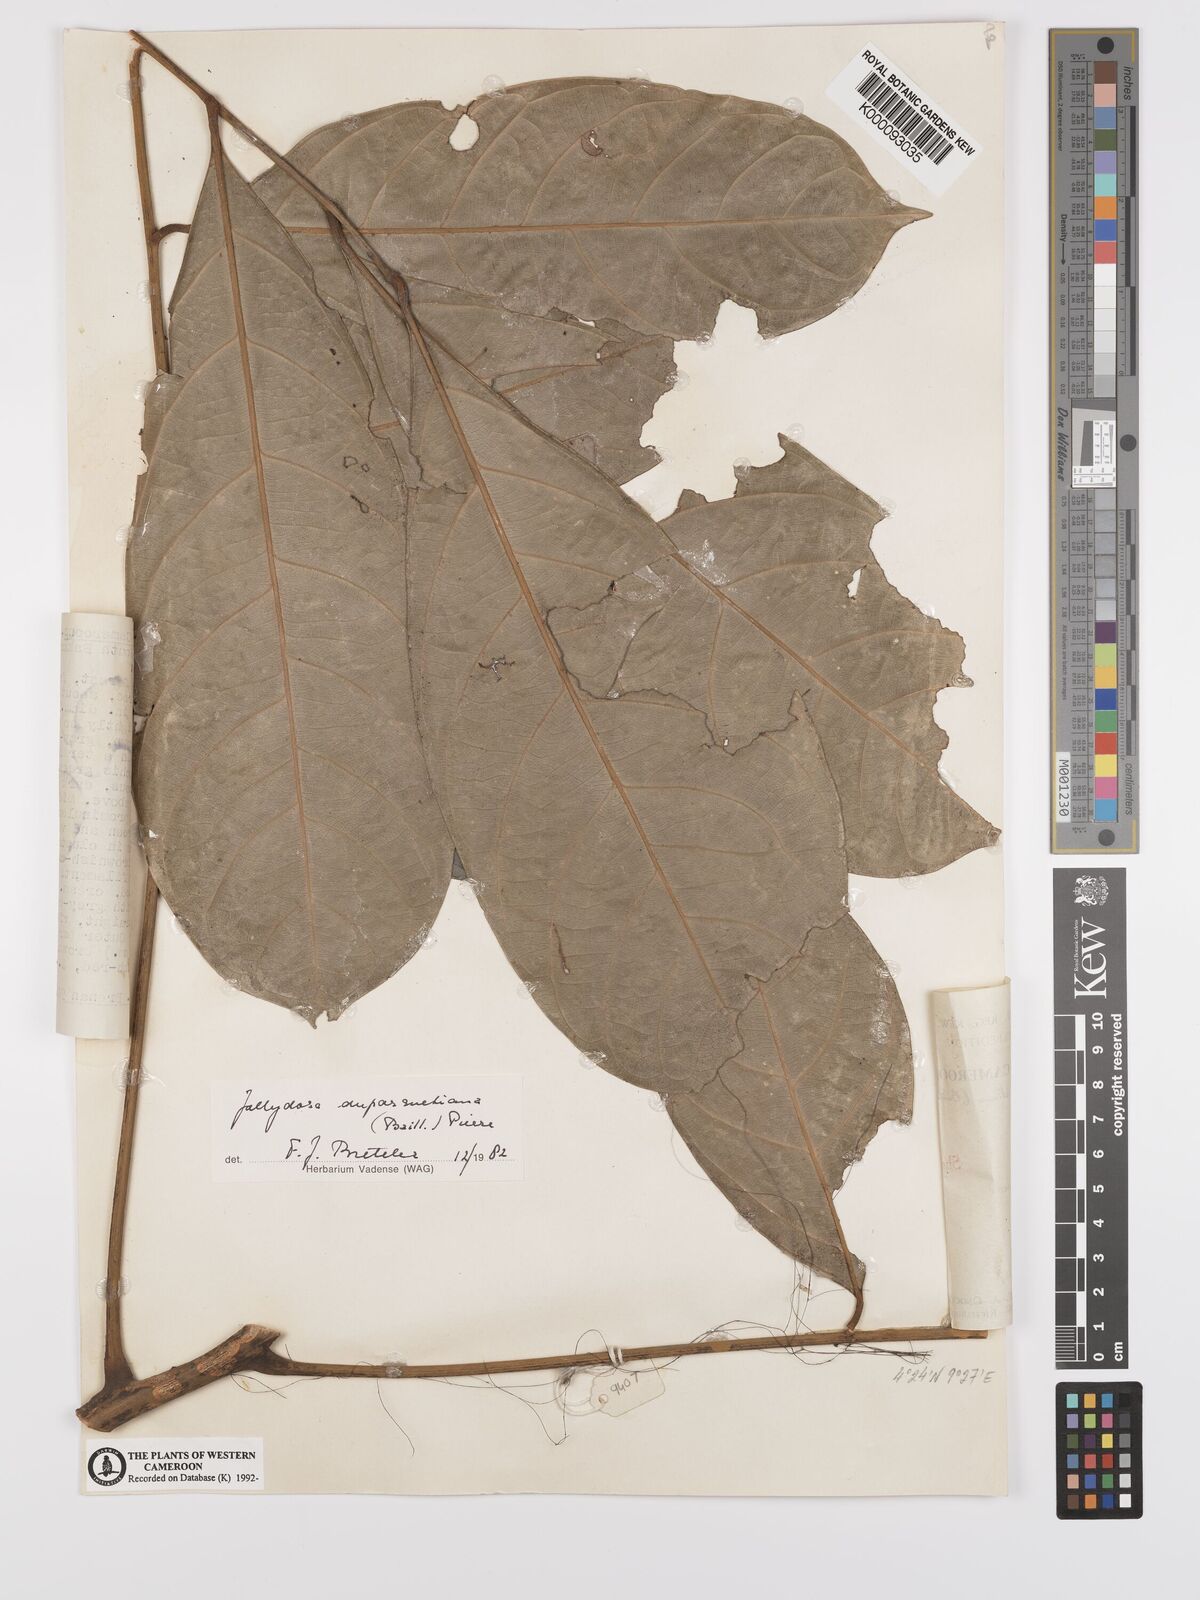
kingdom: Plantae
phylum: Tracheophyta
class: Magnoliopsida
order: Oxalidales
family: Connaraceae
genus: Jollydora
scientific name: Jollydora duparquetiana
